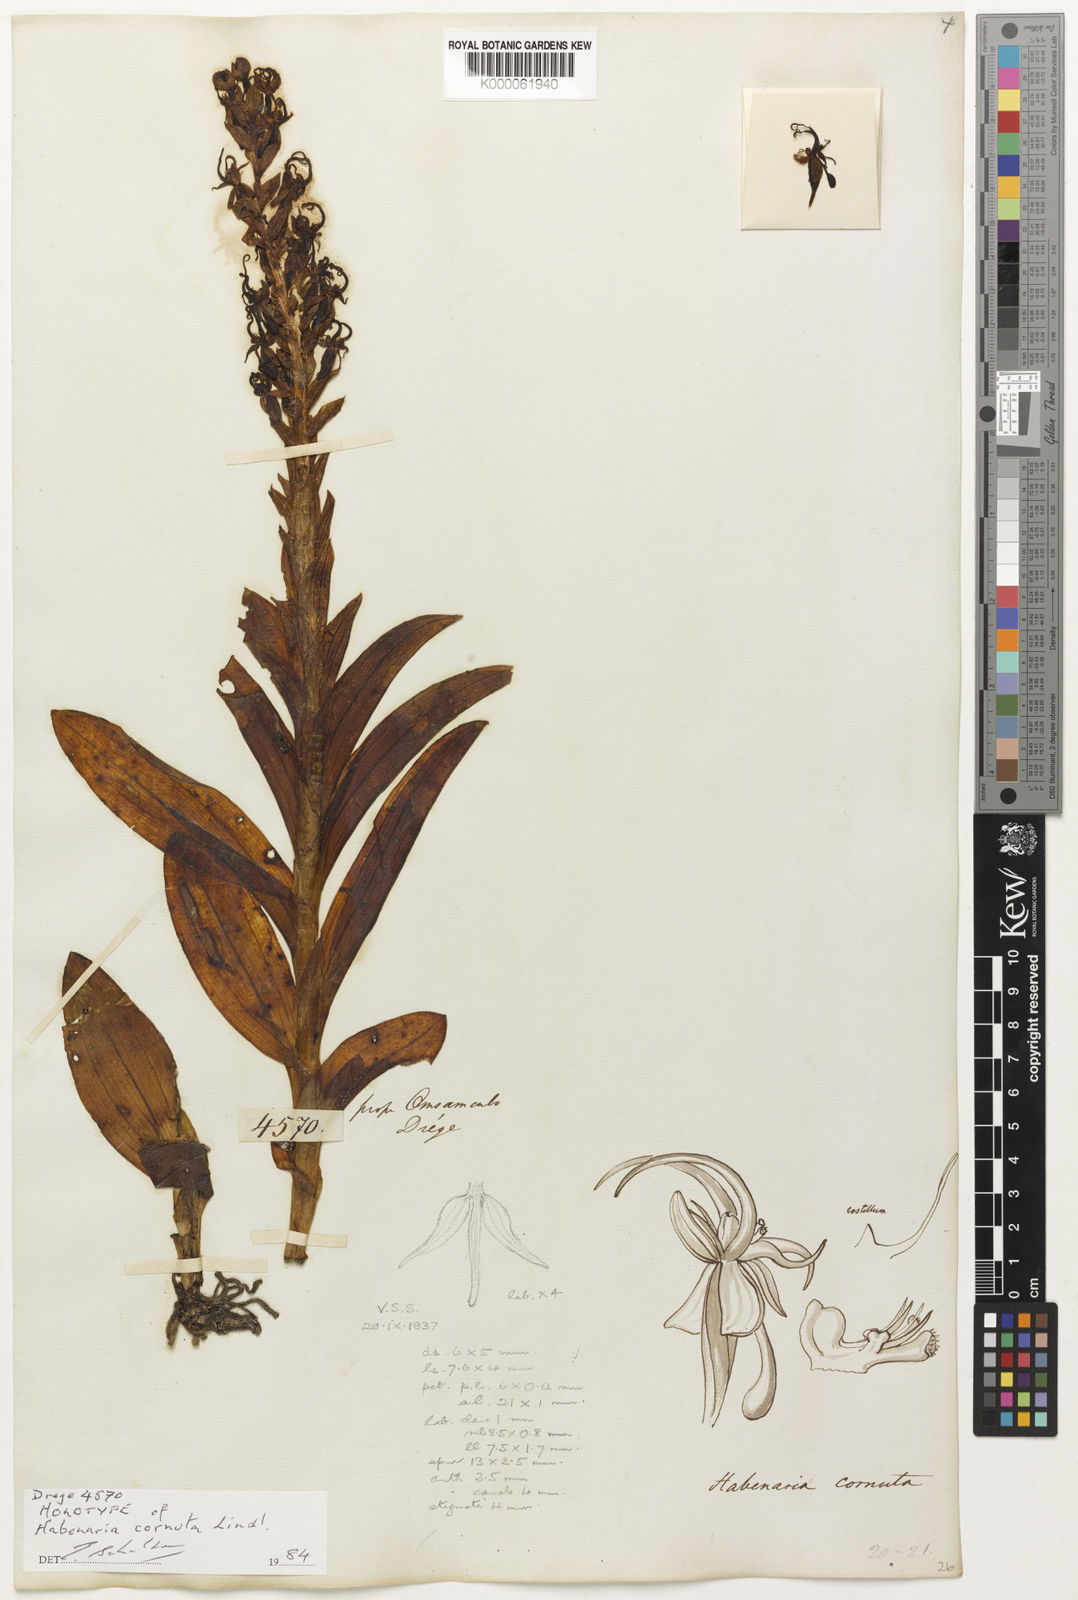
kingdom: Plantae
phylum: Tracheophyta
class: Liliopsida
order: Asparagales
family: Orchidaceae
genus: Habenaria
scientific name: Habenaria cornuta
